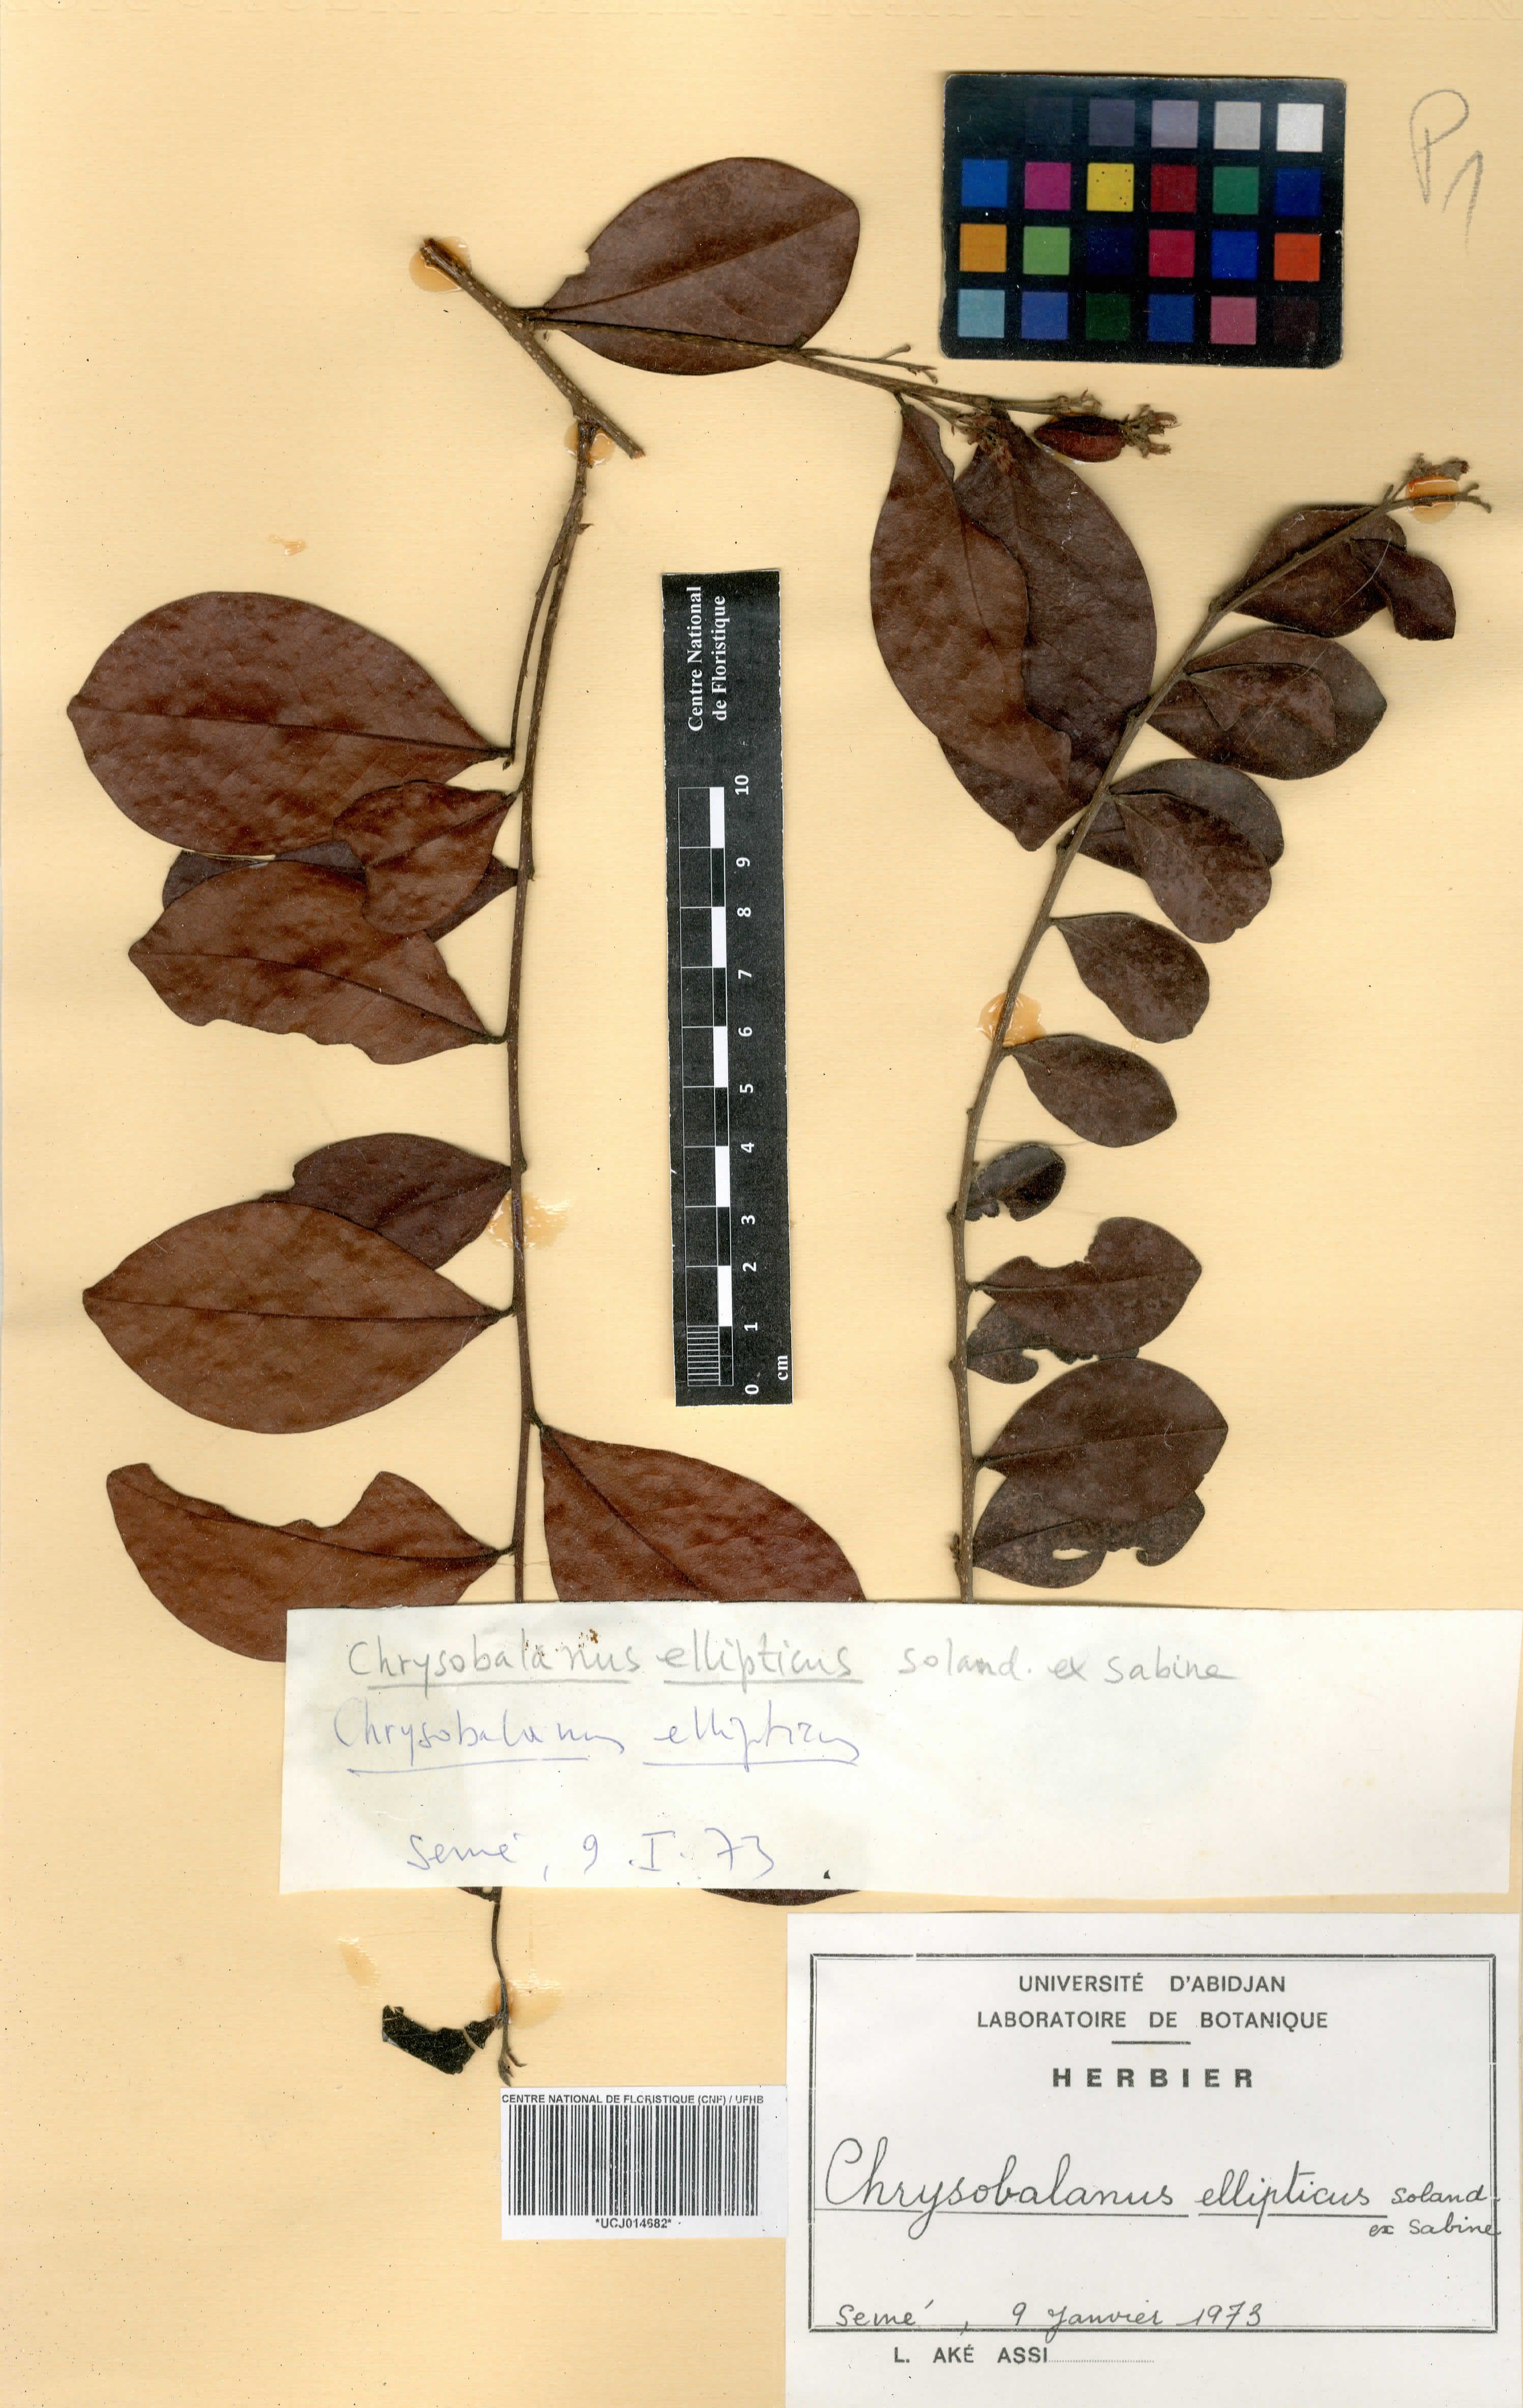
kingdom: Plantae
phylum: Tracheophyta
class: Magnoliopsida
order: Malpighiales
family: Chrysobalanaceae
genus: Chrysobalanus
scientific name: Chrysobalanus icaco
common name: Coco plum
